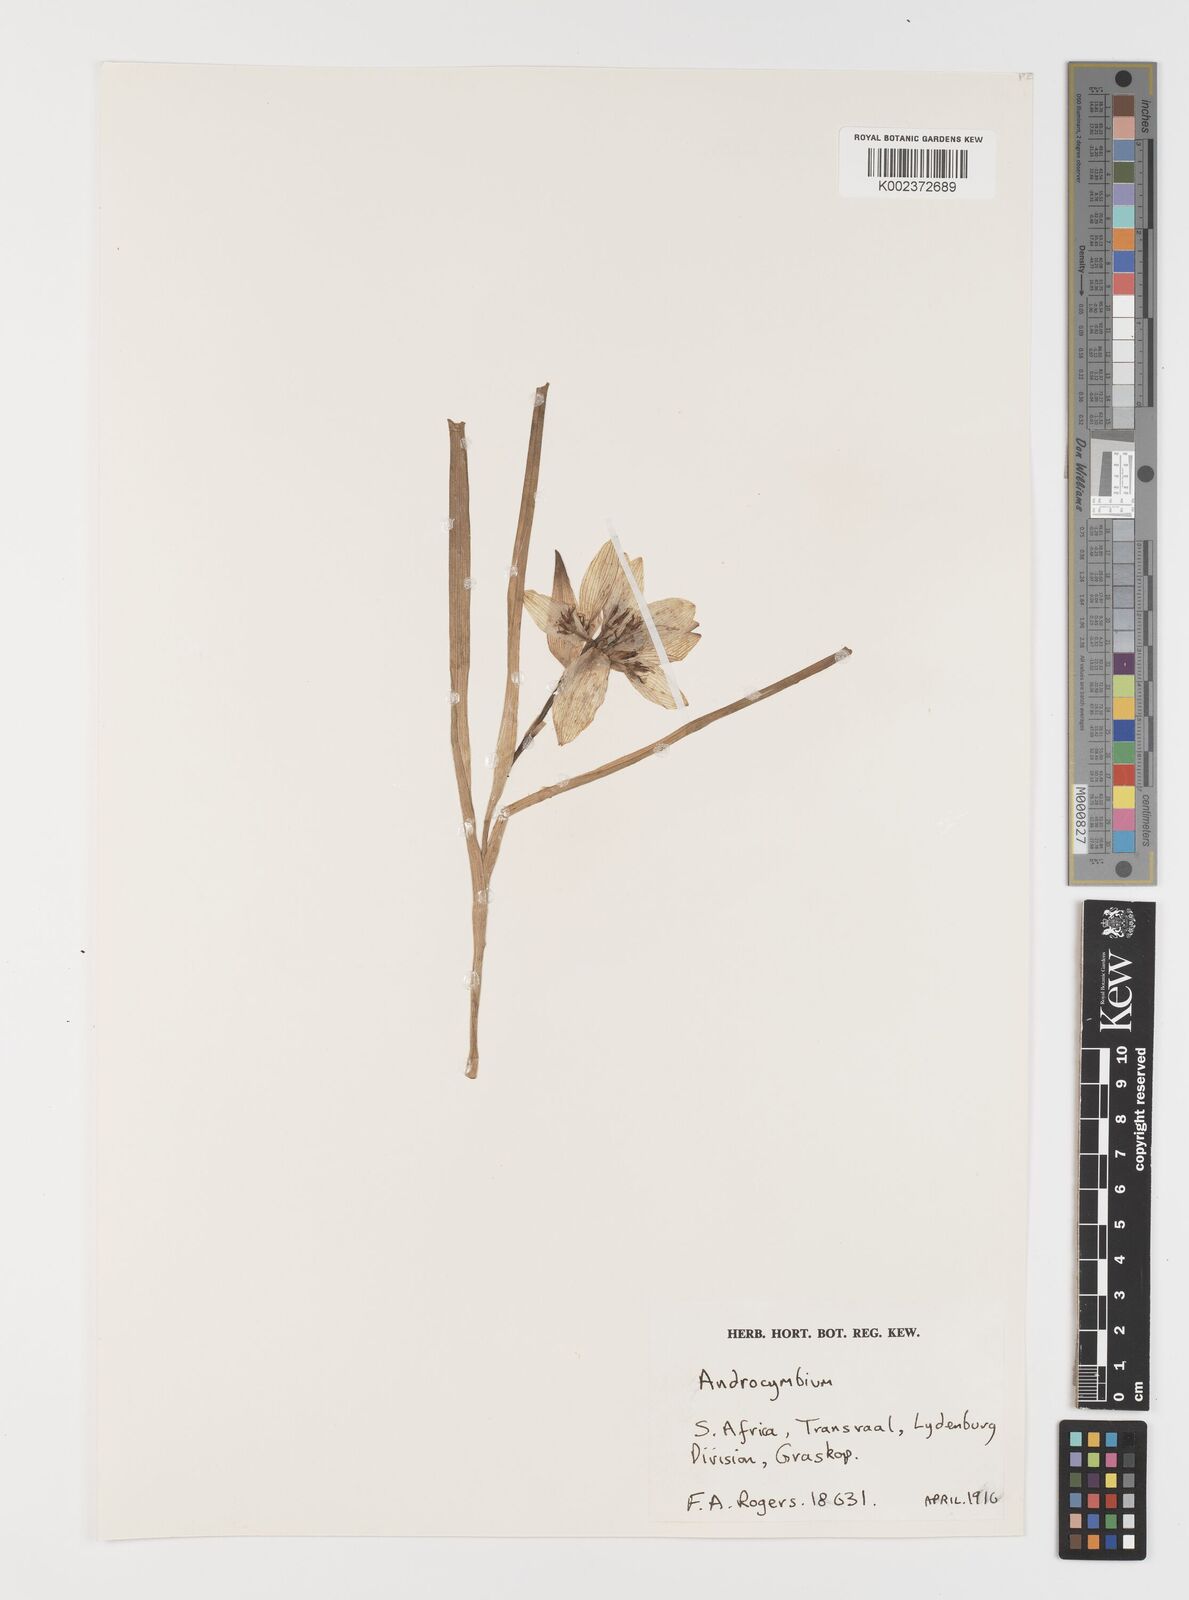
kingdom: Plantae
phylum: Tracheophyta
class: Liliopsida
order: Liliales
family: Colchicaceae
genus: Colchicum
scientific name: Colchicum striatum
